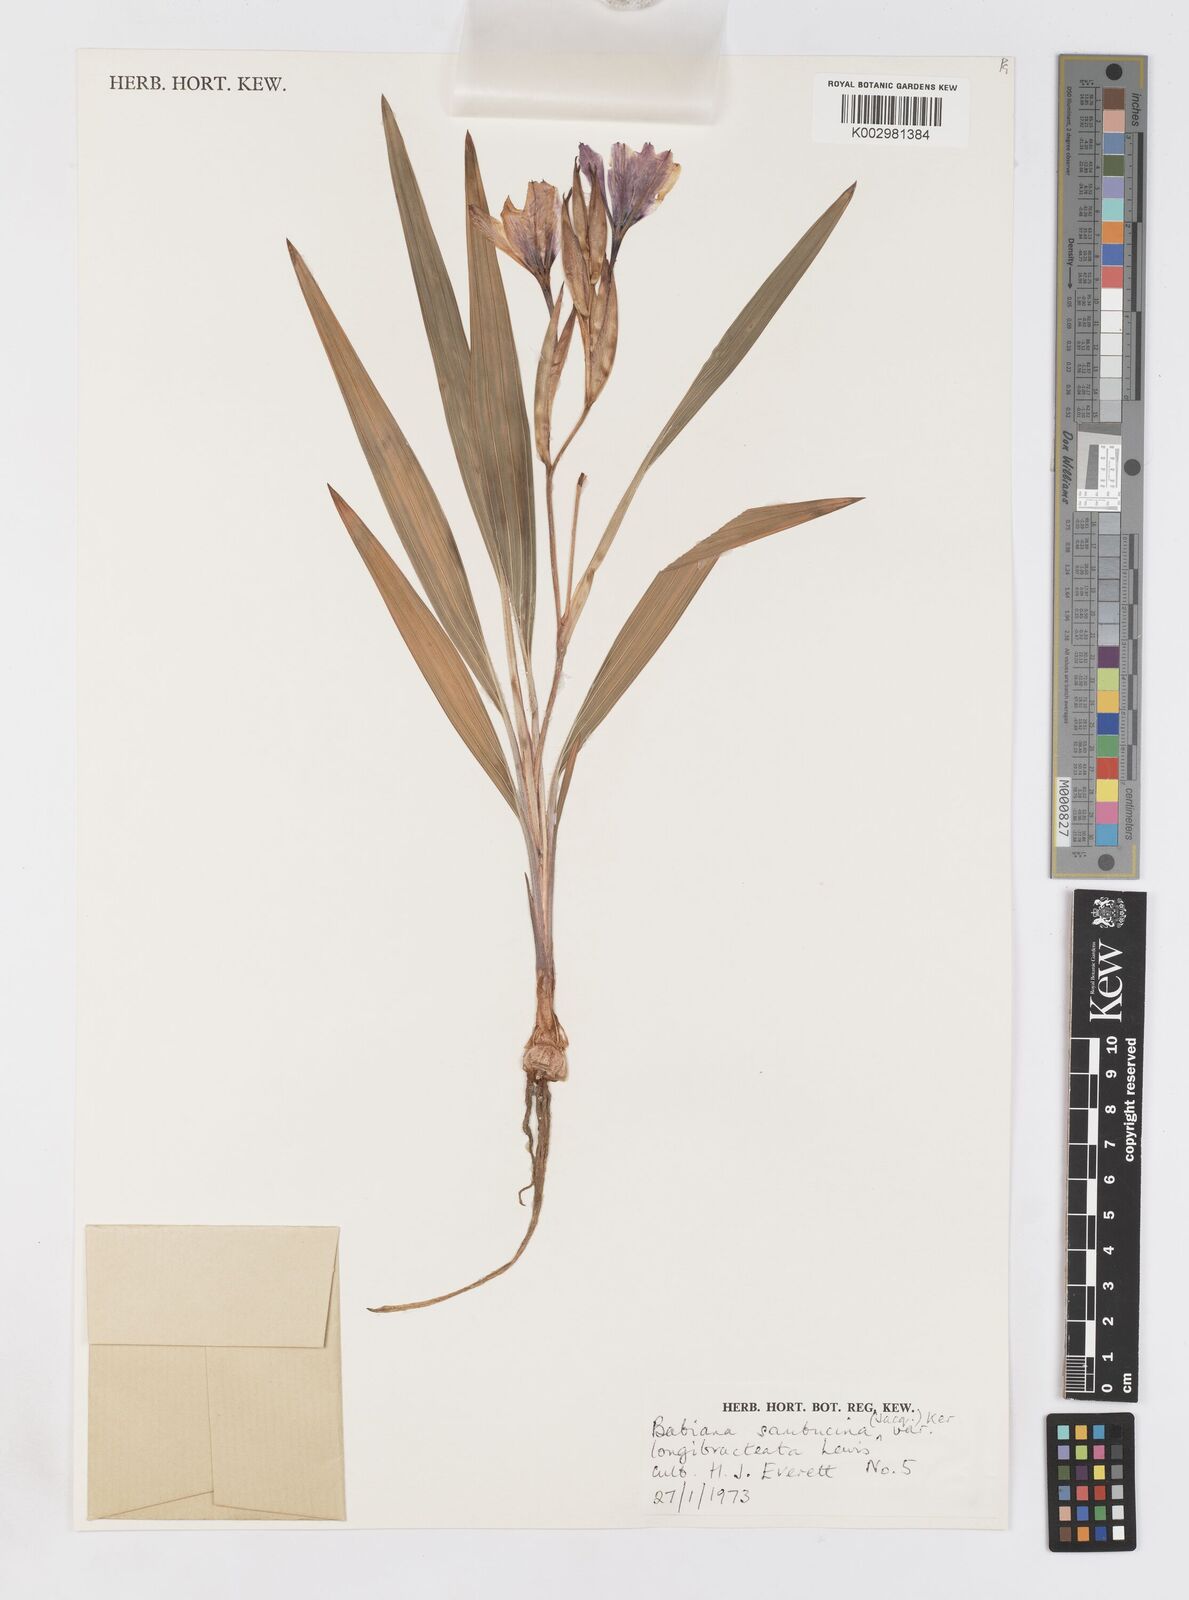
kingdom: Plantae
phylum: Tracheophyta
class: Liliopsida
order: Asparagales
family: Iridaceae
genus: Babiana
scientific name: Babiana sambucina
